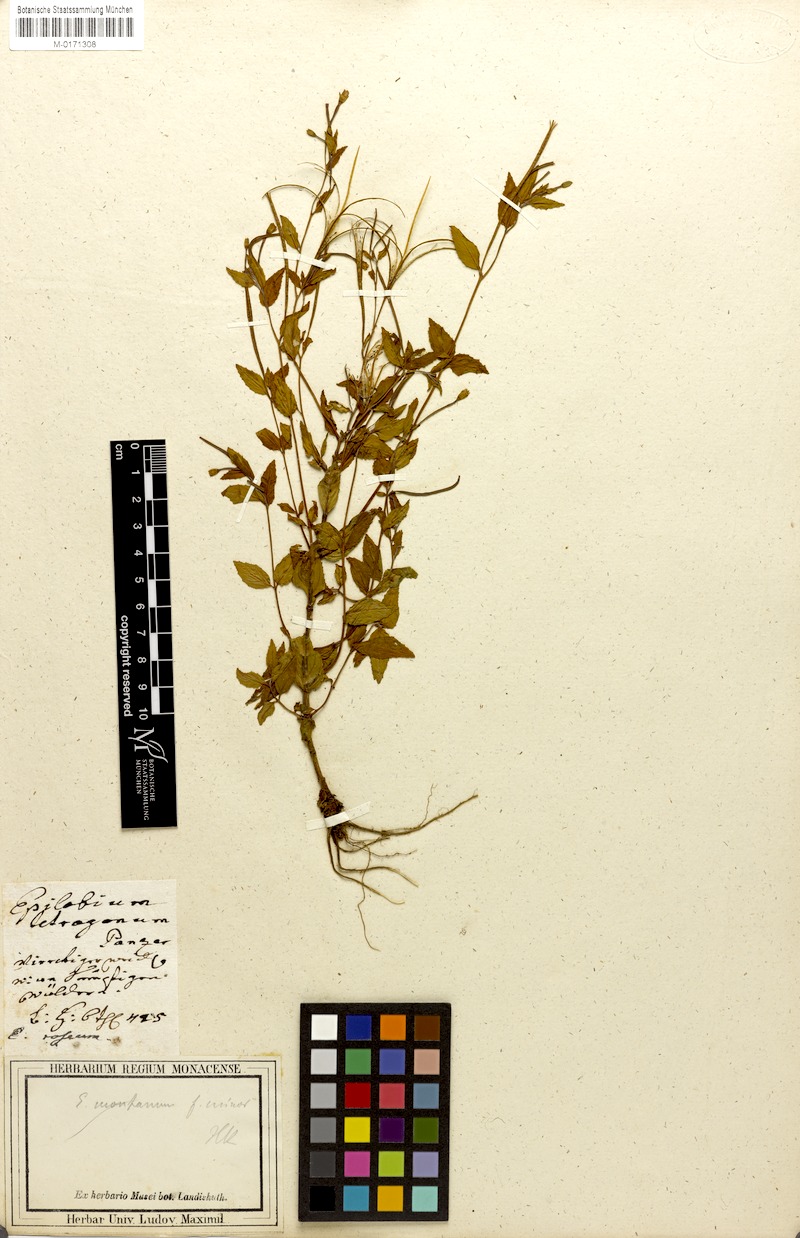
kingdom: Plantae
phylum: Tracheophyta
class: Magnoliopsida
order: Myrtales
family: Onagraceae
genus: Epilobium
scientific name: Epilobium roseum
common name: Pale willowherb
